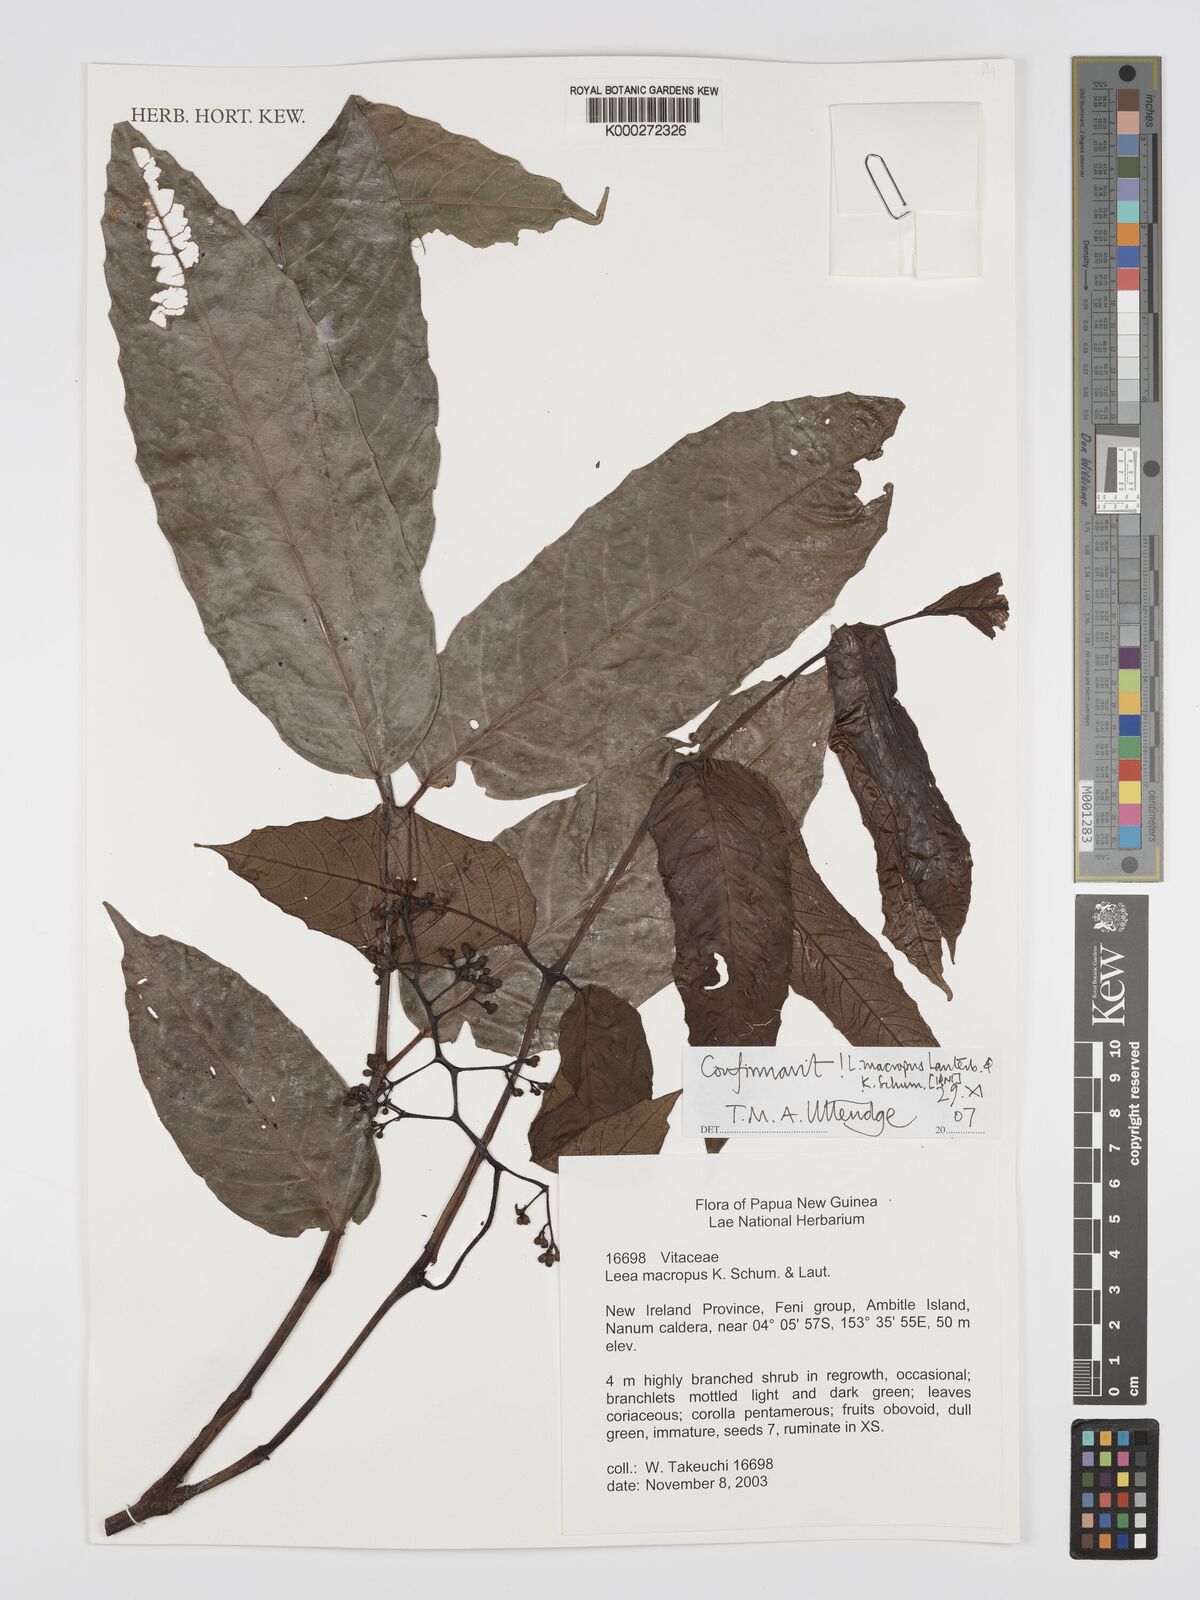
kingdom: Plantae
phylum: Tracheophyta
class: Magnoliopsida
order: Vitales
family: Vitaceae
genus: Leea
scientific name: Leea macropus
